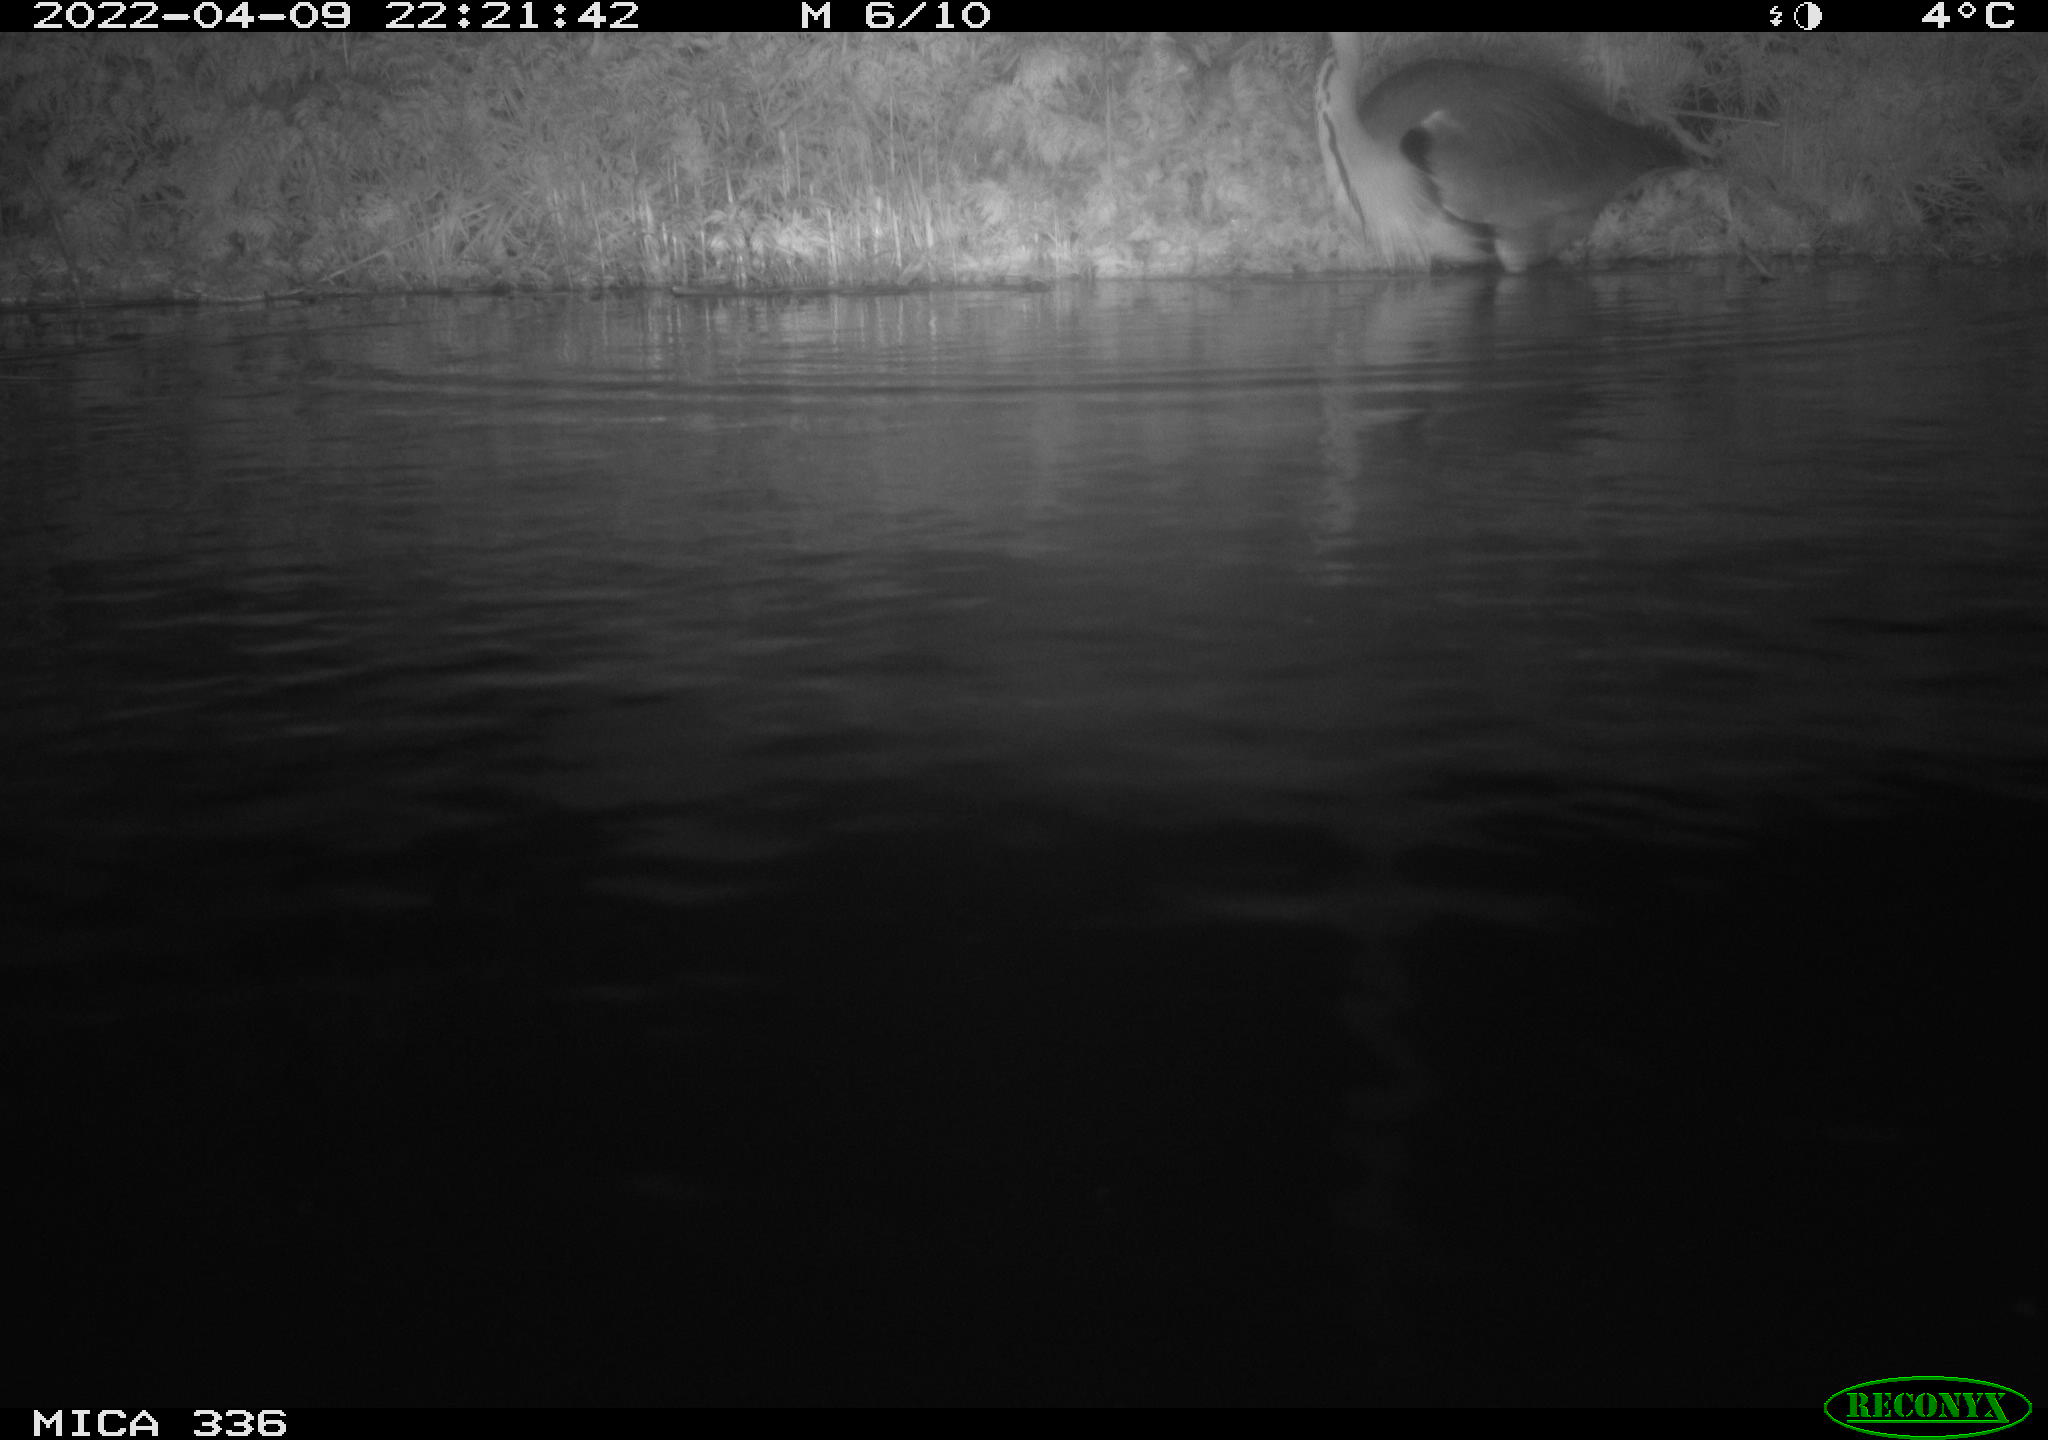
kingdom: Animalia
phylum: Chordata
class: Aves
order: Pelecaniformes
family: Ardeidae
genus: Ardea
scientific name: Ardea cinerea
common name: Grey heron
